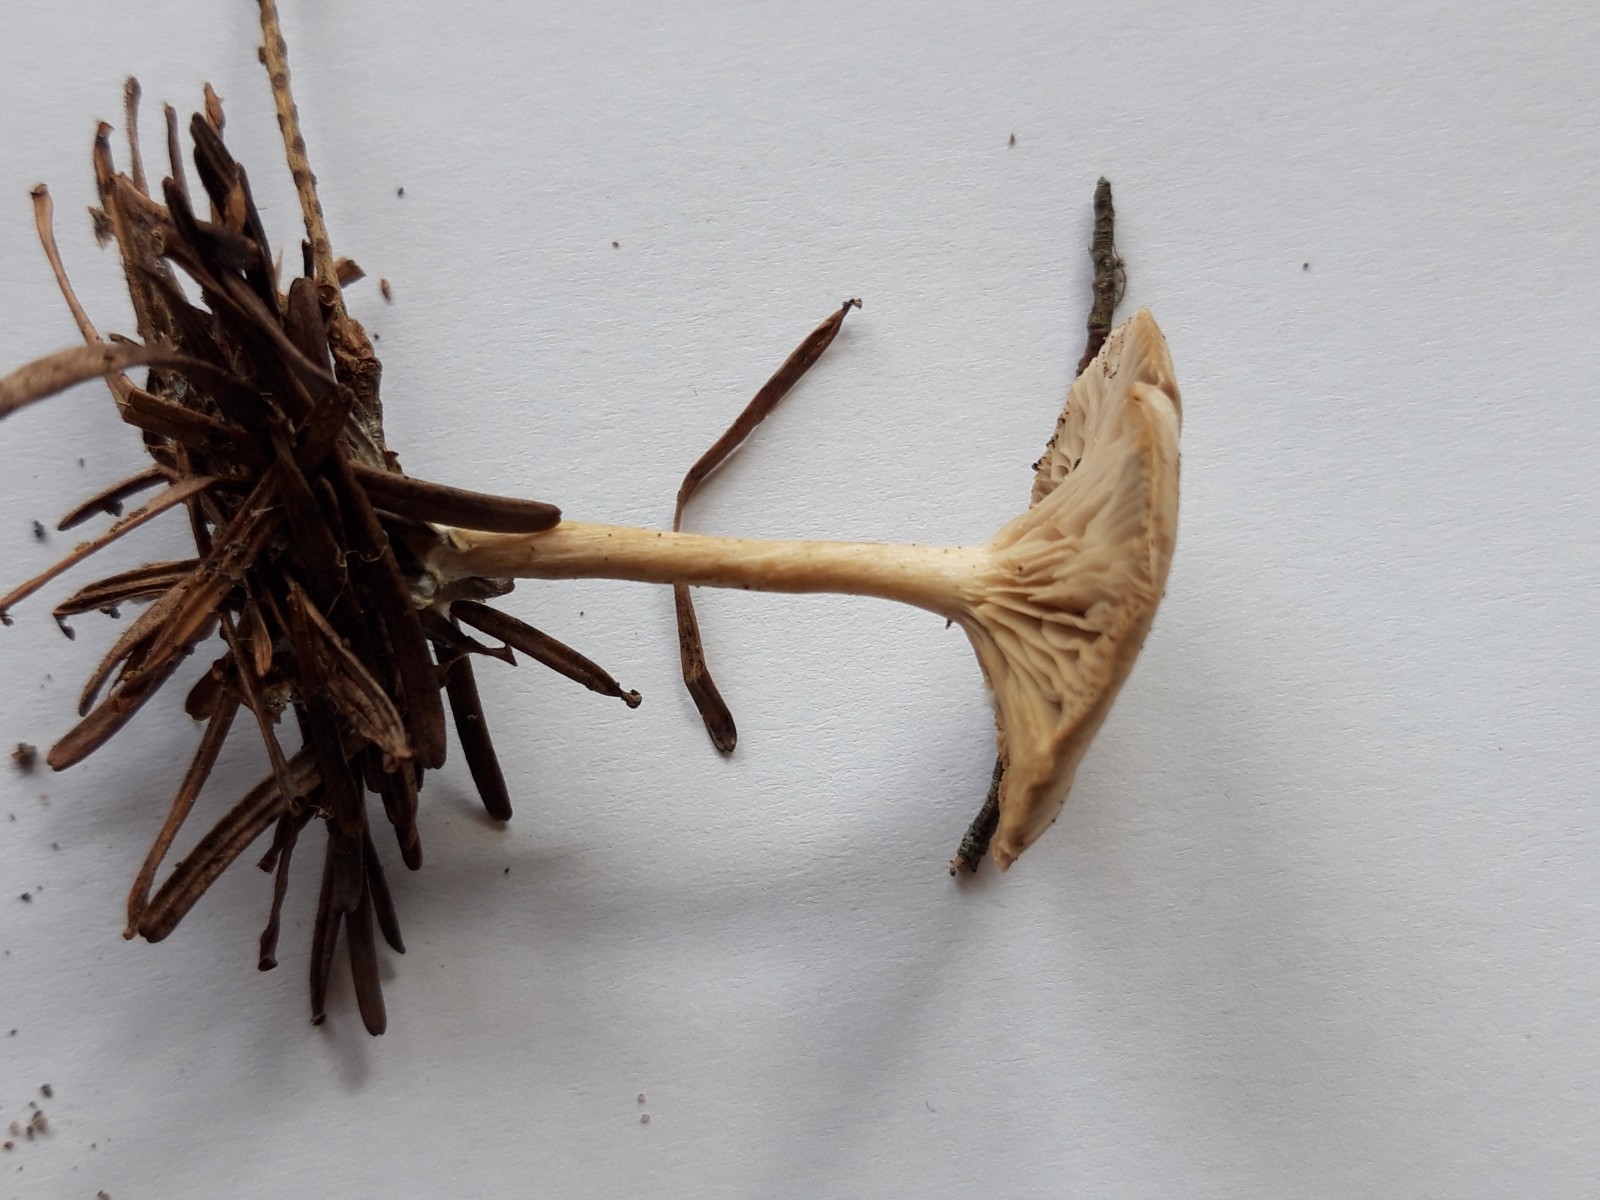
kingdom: Fungi
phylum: Basidiomycota
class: Agaricomycetes
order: Agaricales
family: Tricholomataceae
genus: Clitocybe
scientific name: Clitocybe
